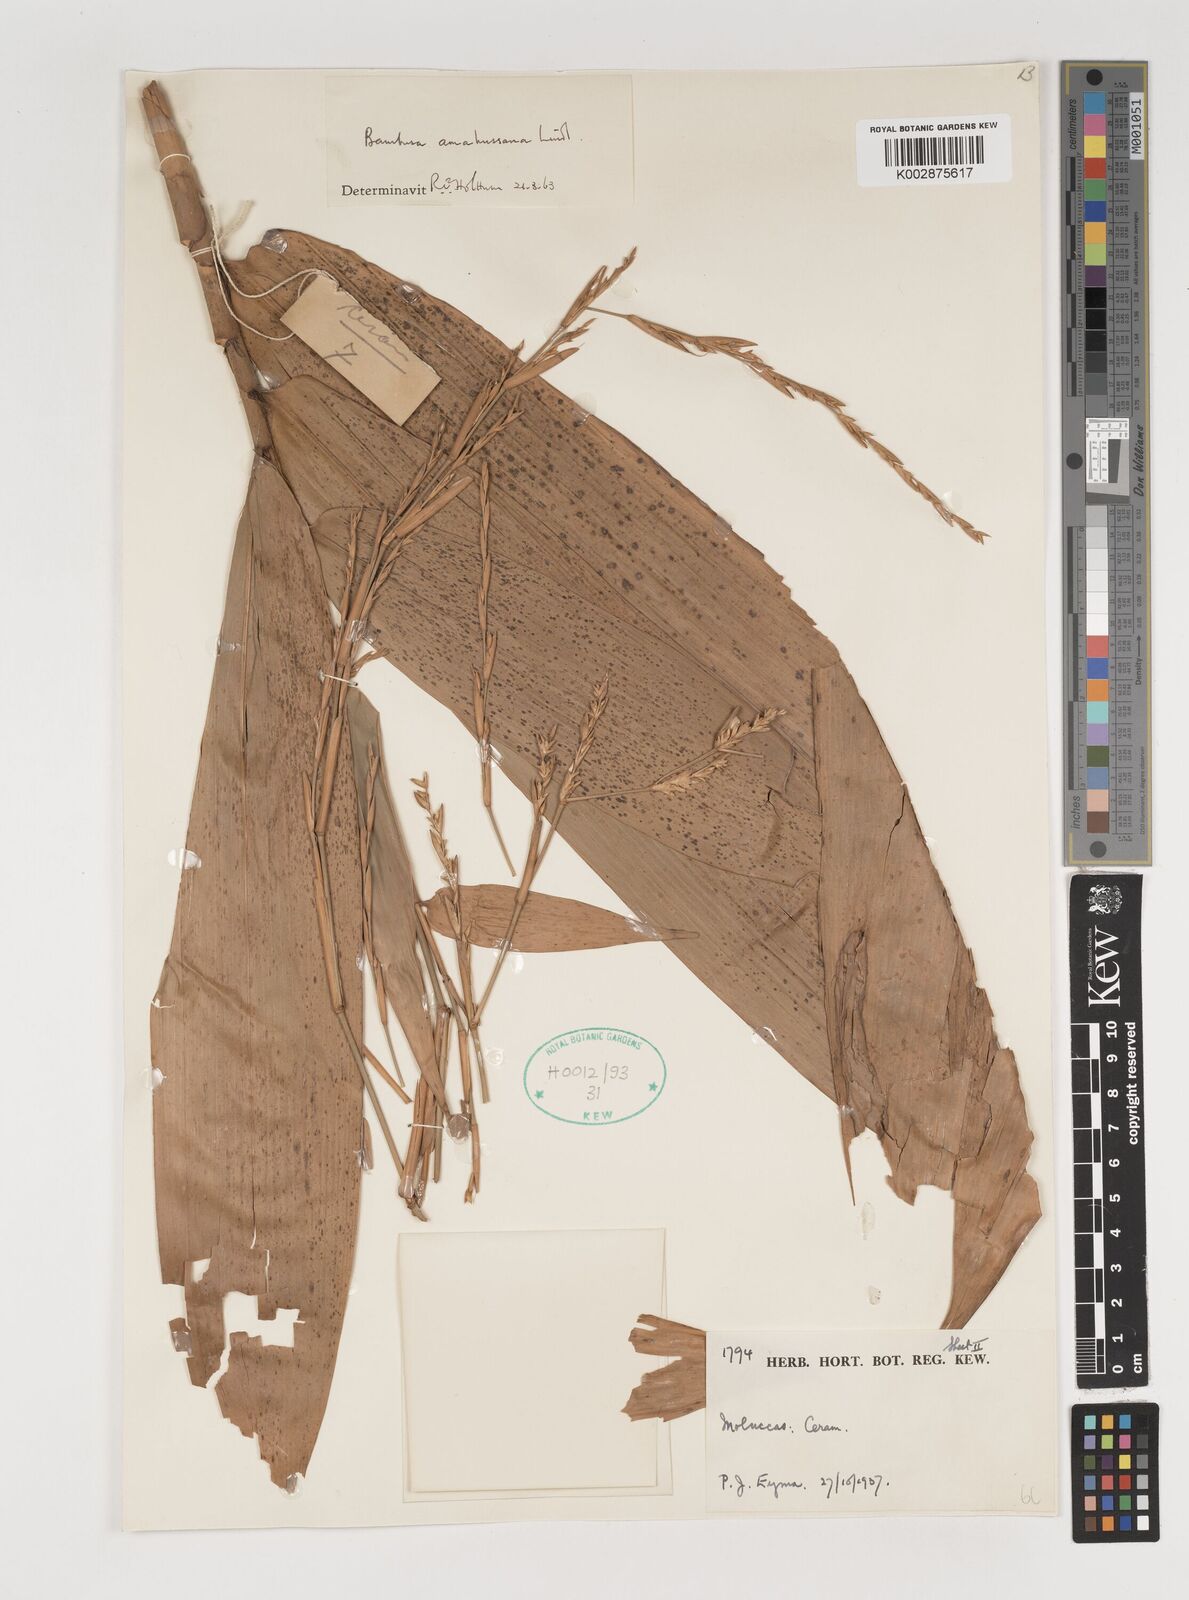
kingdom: Plantae
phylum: Tracheophyta
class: Liliopsida
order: Poales
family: Poaceae
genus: Neololeba
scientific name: Neololeba amahussana
